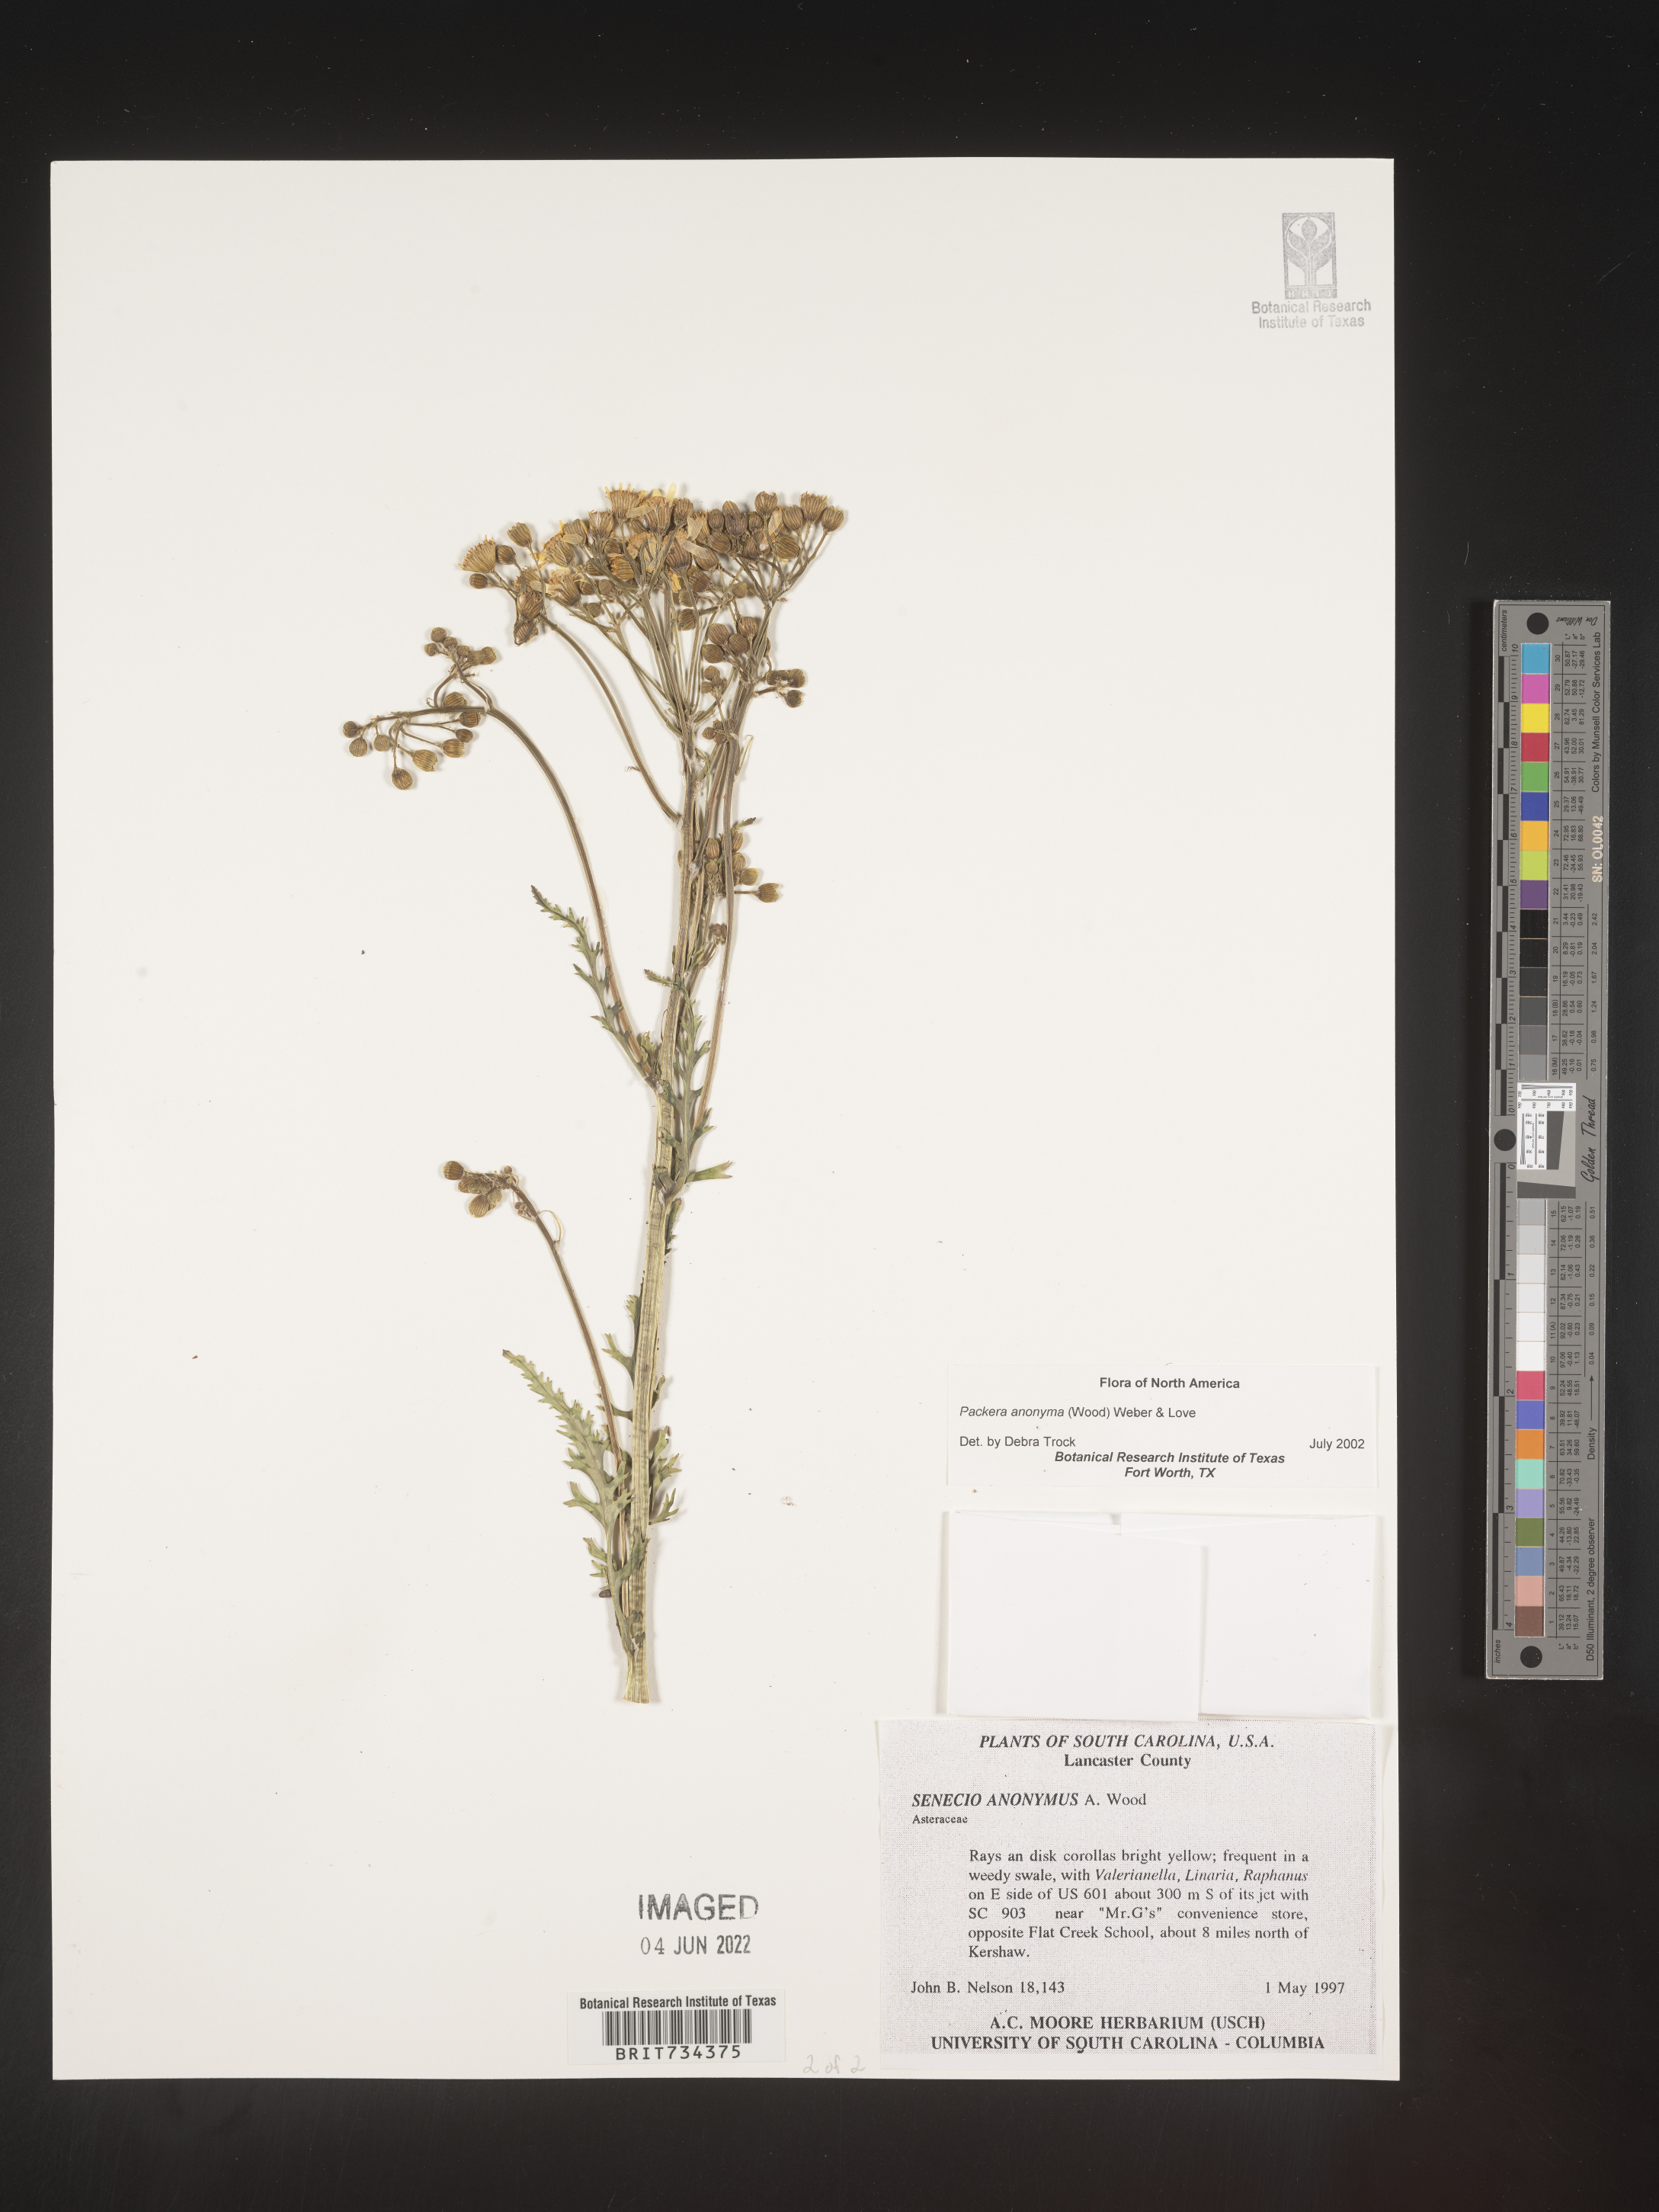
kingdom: Plantae
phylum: Tracheophyta
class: Magnoliopsida
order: Asterales
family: Asteraceae
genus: Packera
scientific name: Packera anonyma
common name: Small ragwort
